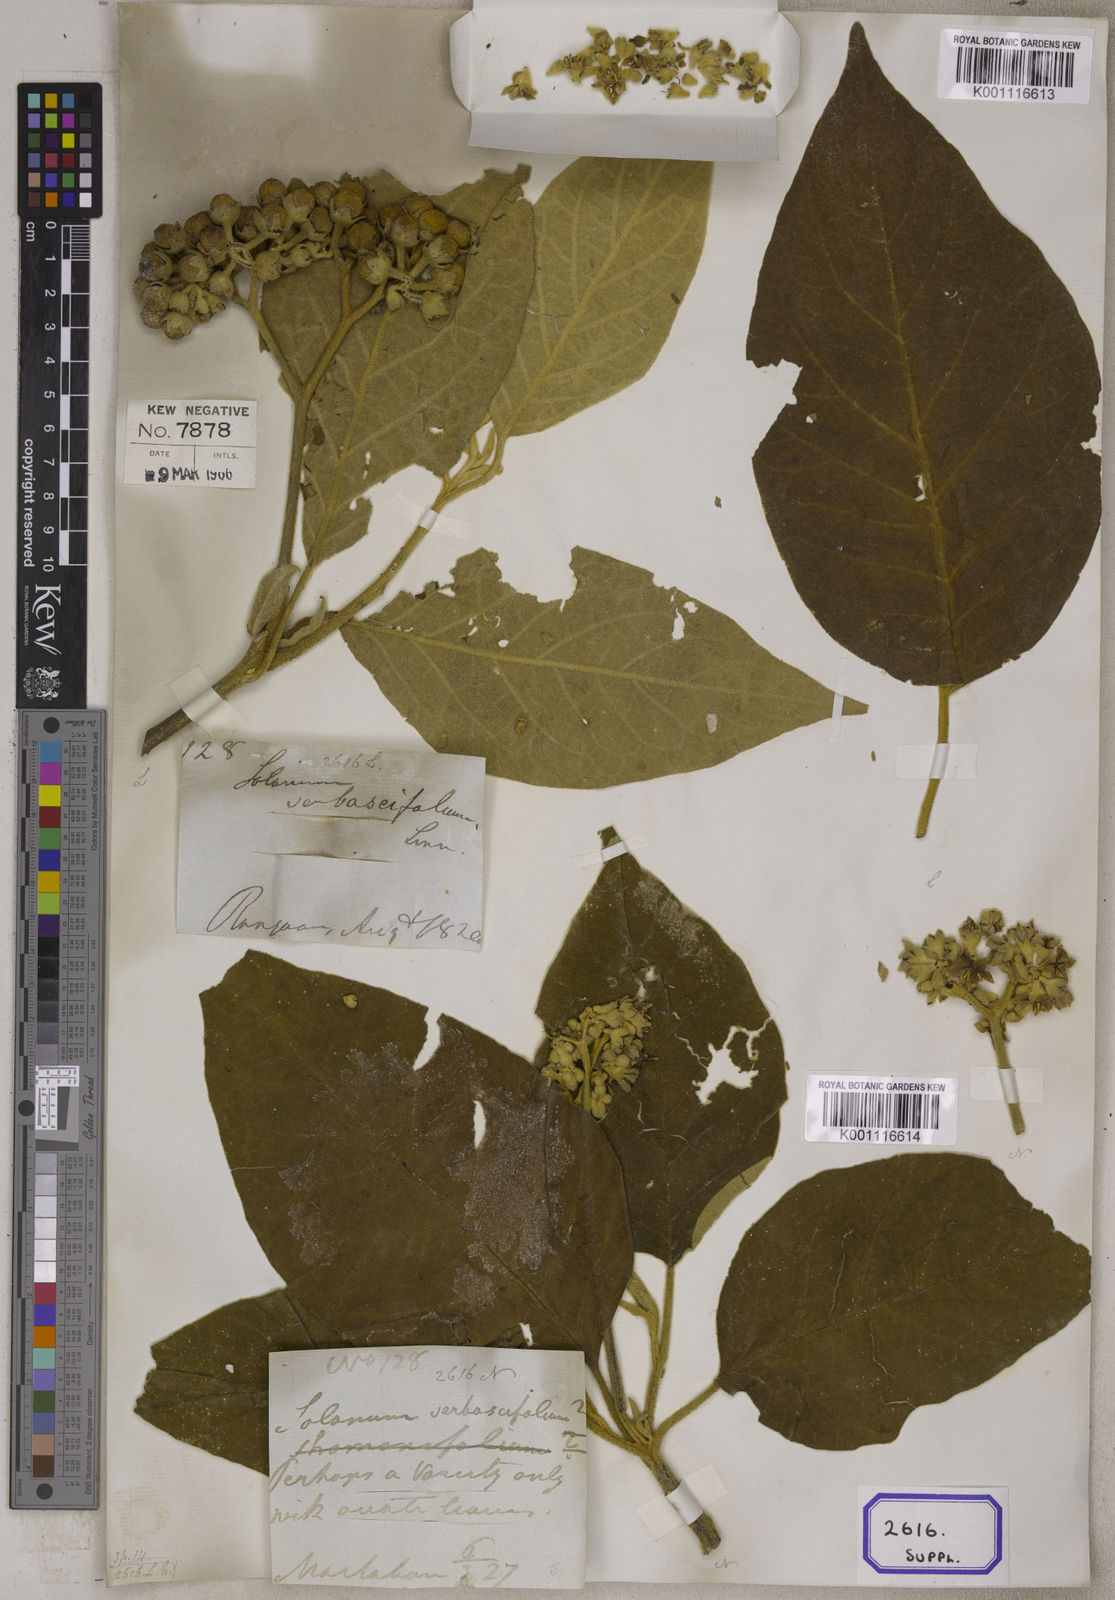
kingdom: Plantae
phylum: Tracheophyta
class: Magnoliopsida
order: Solanales
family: Solanaceae
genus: Solanum
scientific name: Solanum donianum
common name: Mullein nightshade
